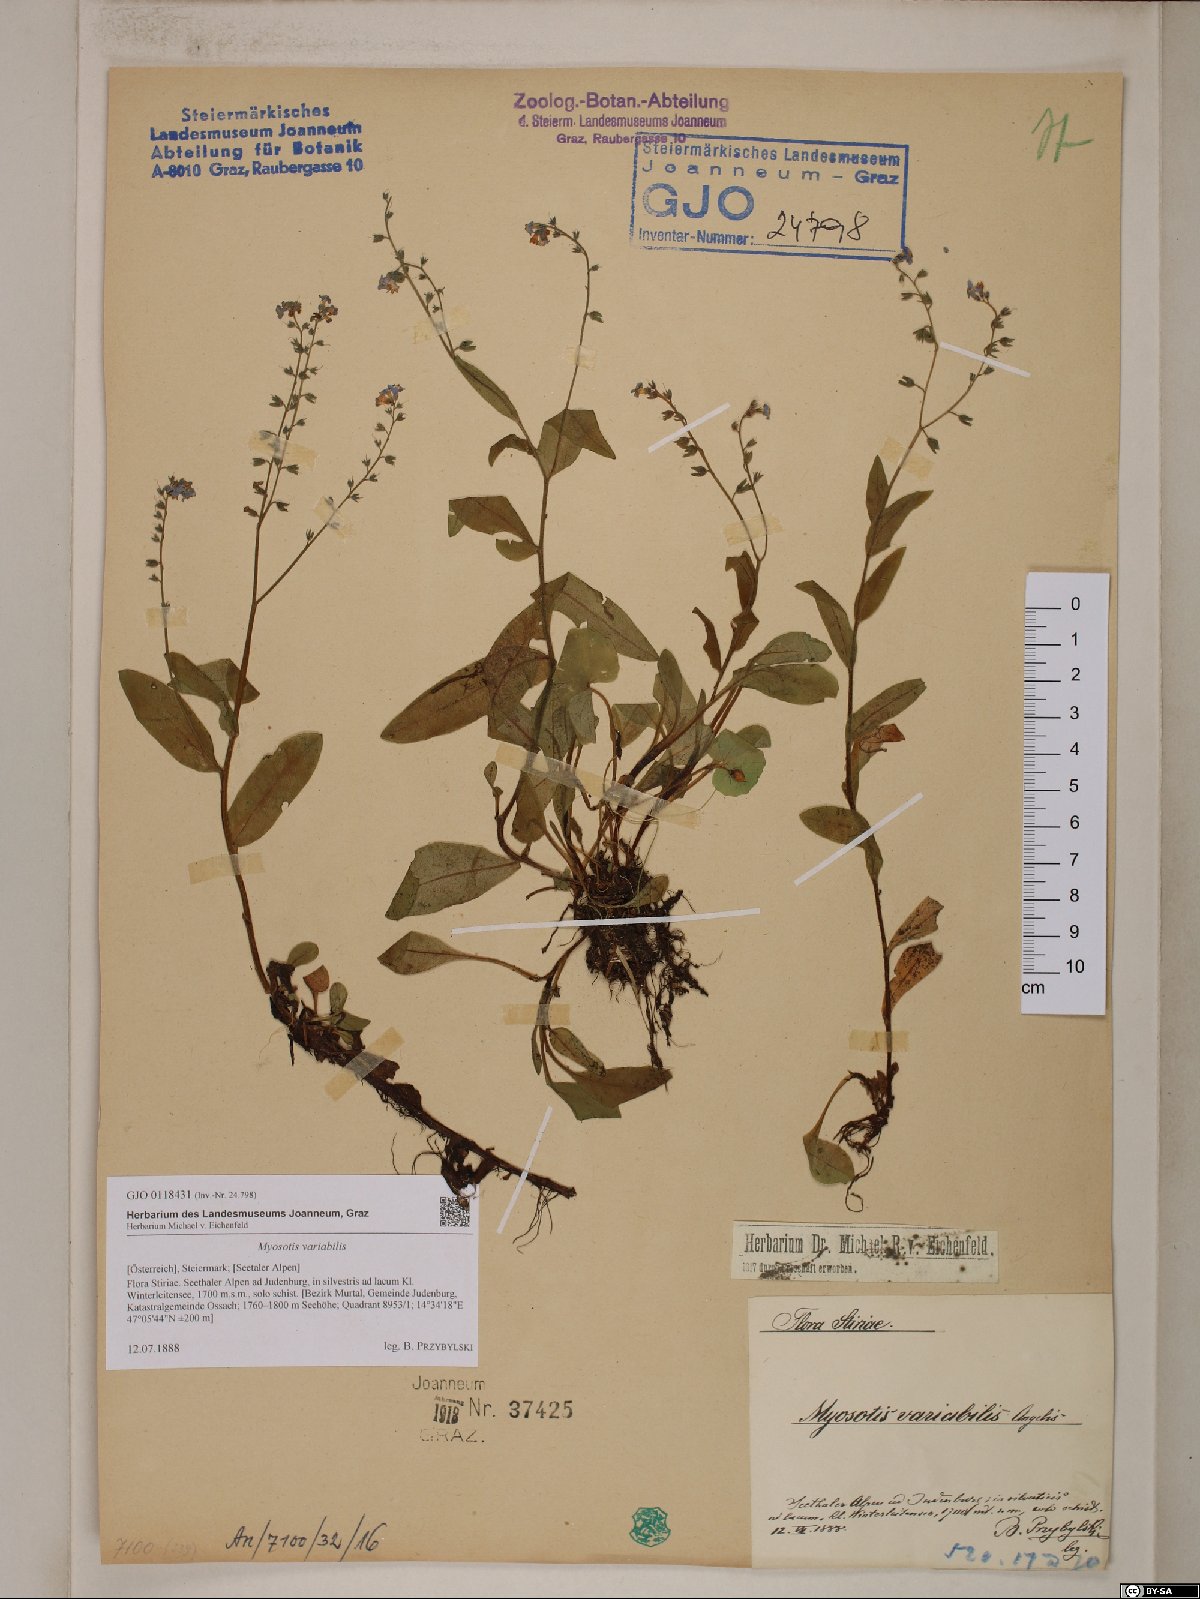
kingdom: Plantae
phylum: Tracheophyta
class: Magnoliopsida
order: Boraginales
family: Boraginaceae
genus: Myosotis
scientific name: Myosotis decumbens
